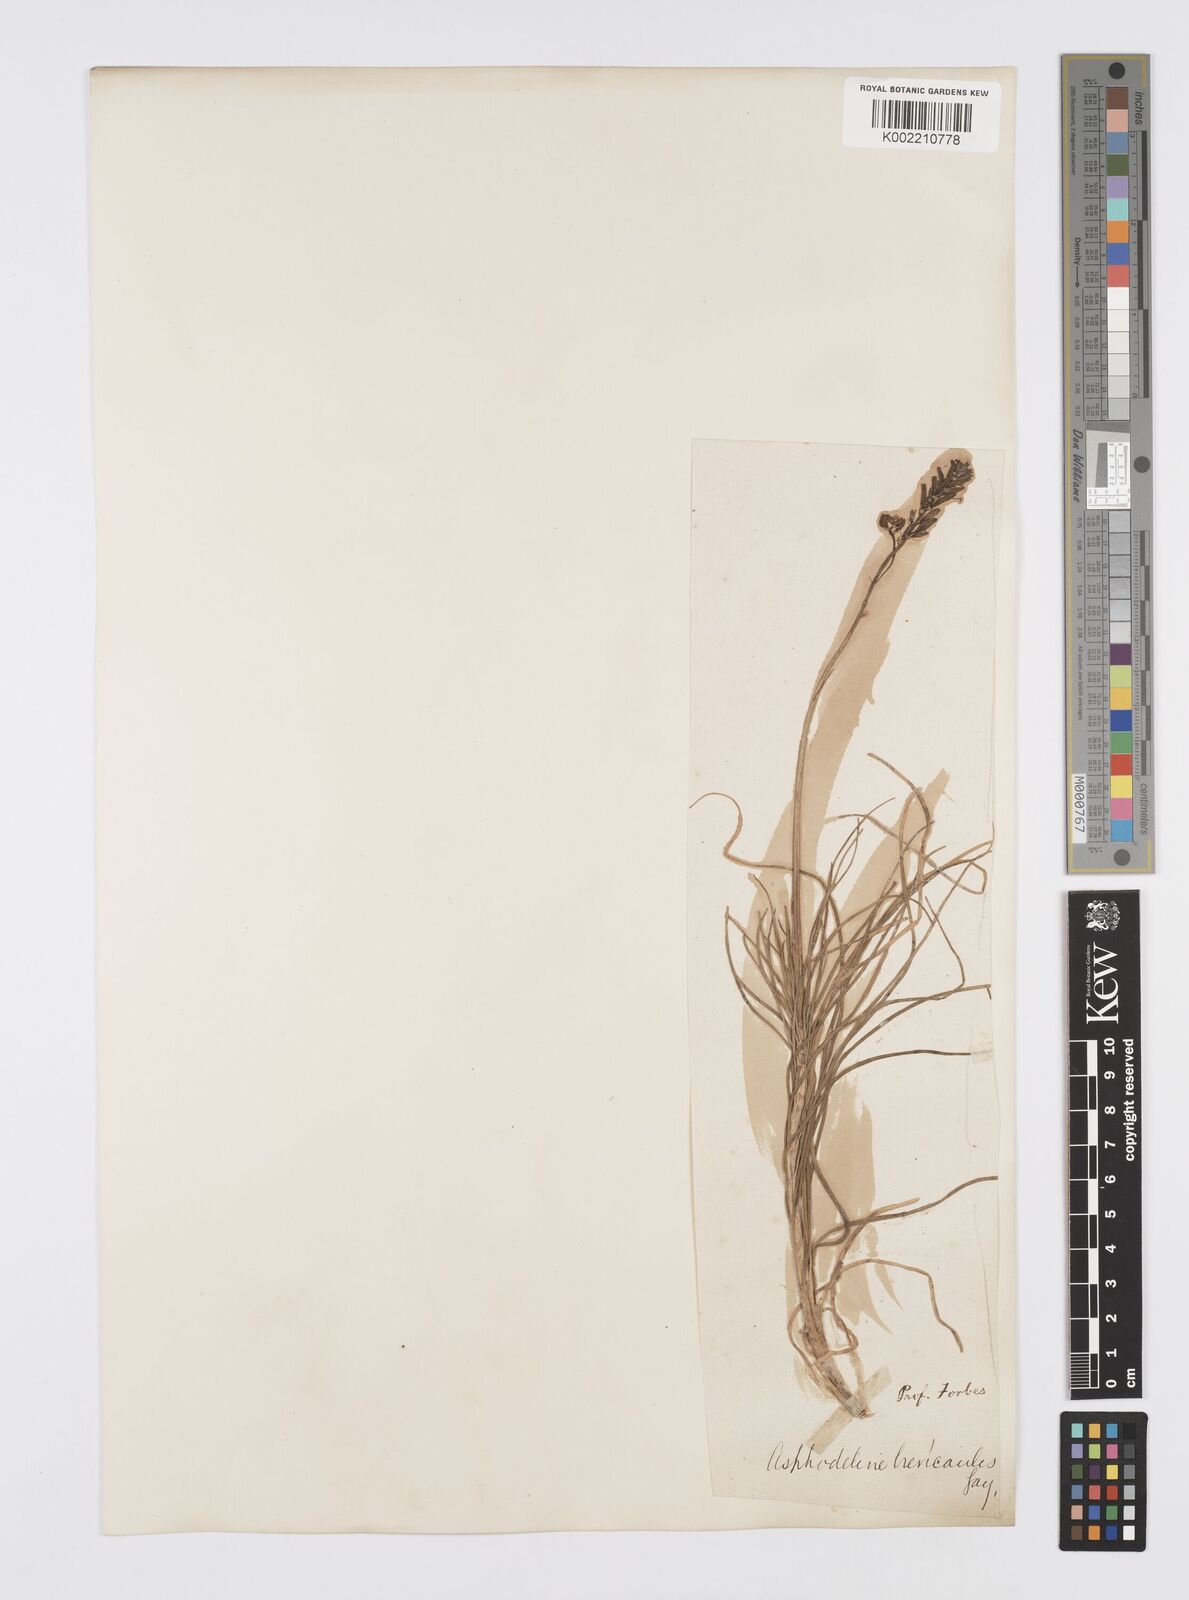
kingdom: Plantae
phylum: Tracheophyta
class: Liliopsida
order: Asparagales
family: Asphodelaceae
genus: Asphodeline
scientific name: Asphodeline brevicaulis
